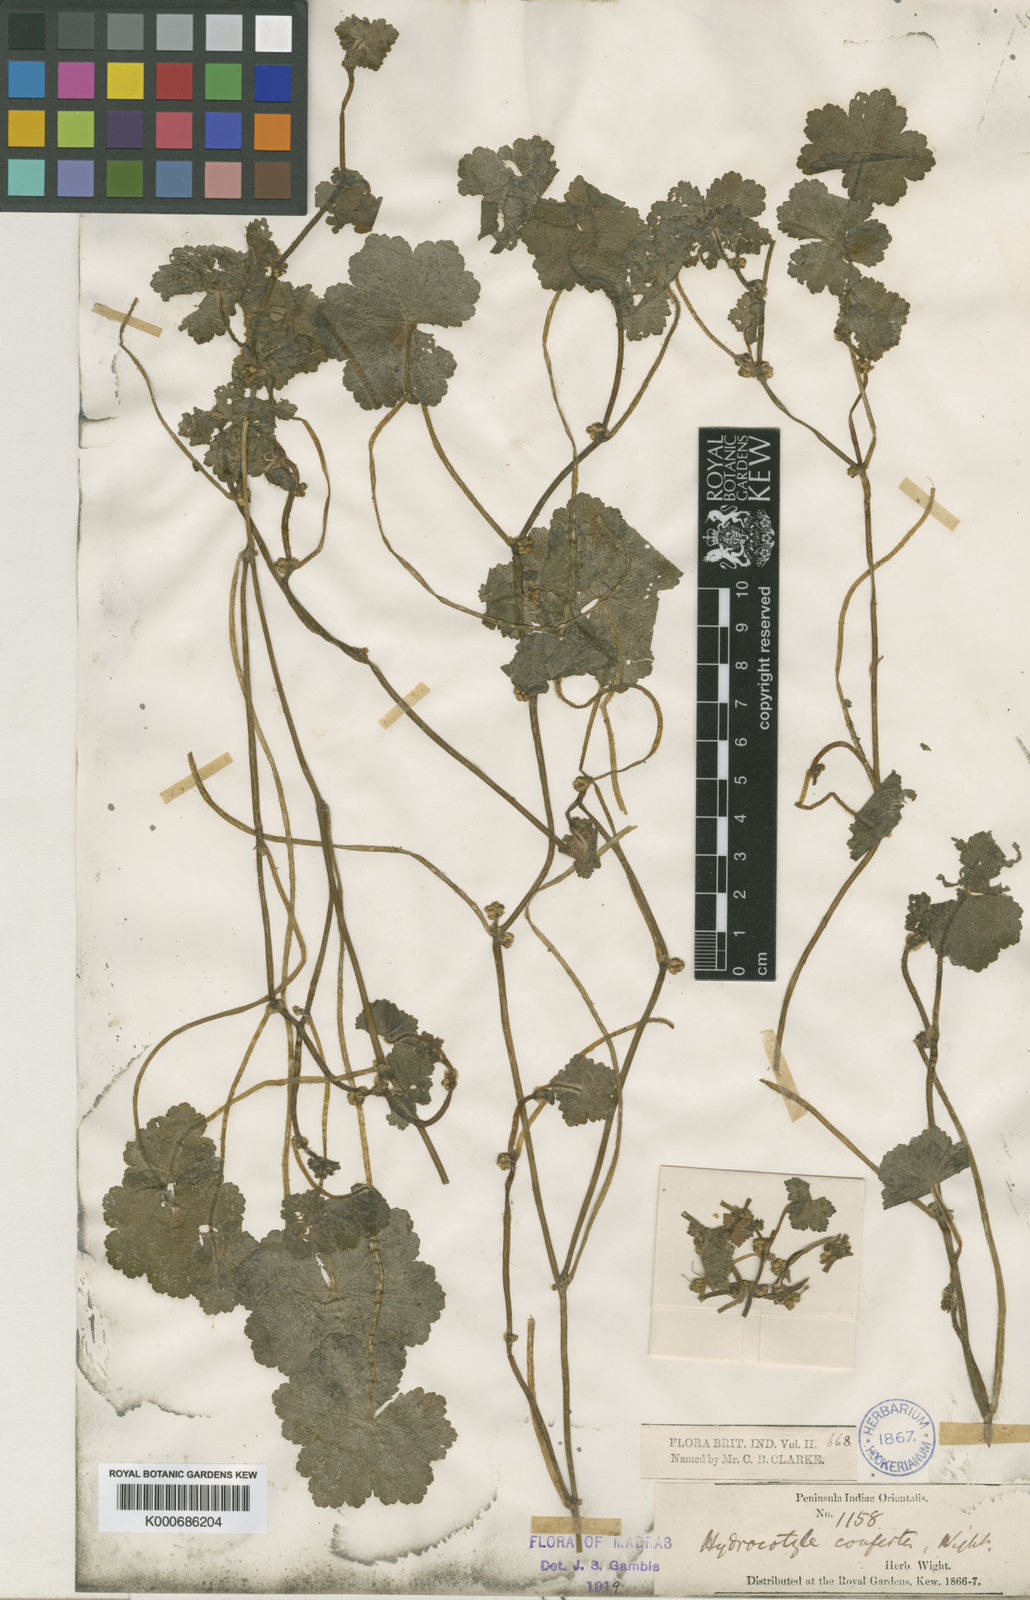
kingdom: Plantae
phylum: Tracheophyta
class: Magnoliopsida
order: Apiales
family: Araliaceae
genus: Hydrocotyle
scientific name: Hydrocotyle pseudoconferta
